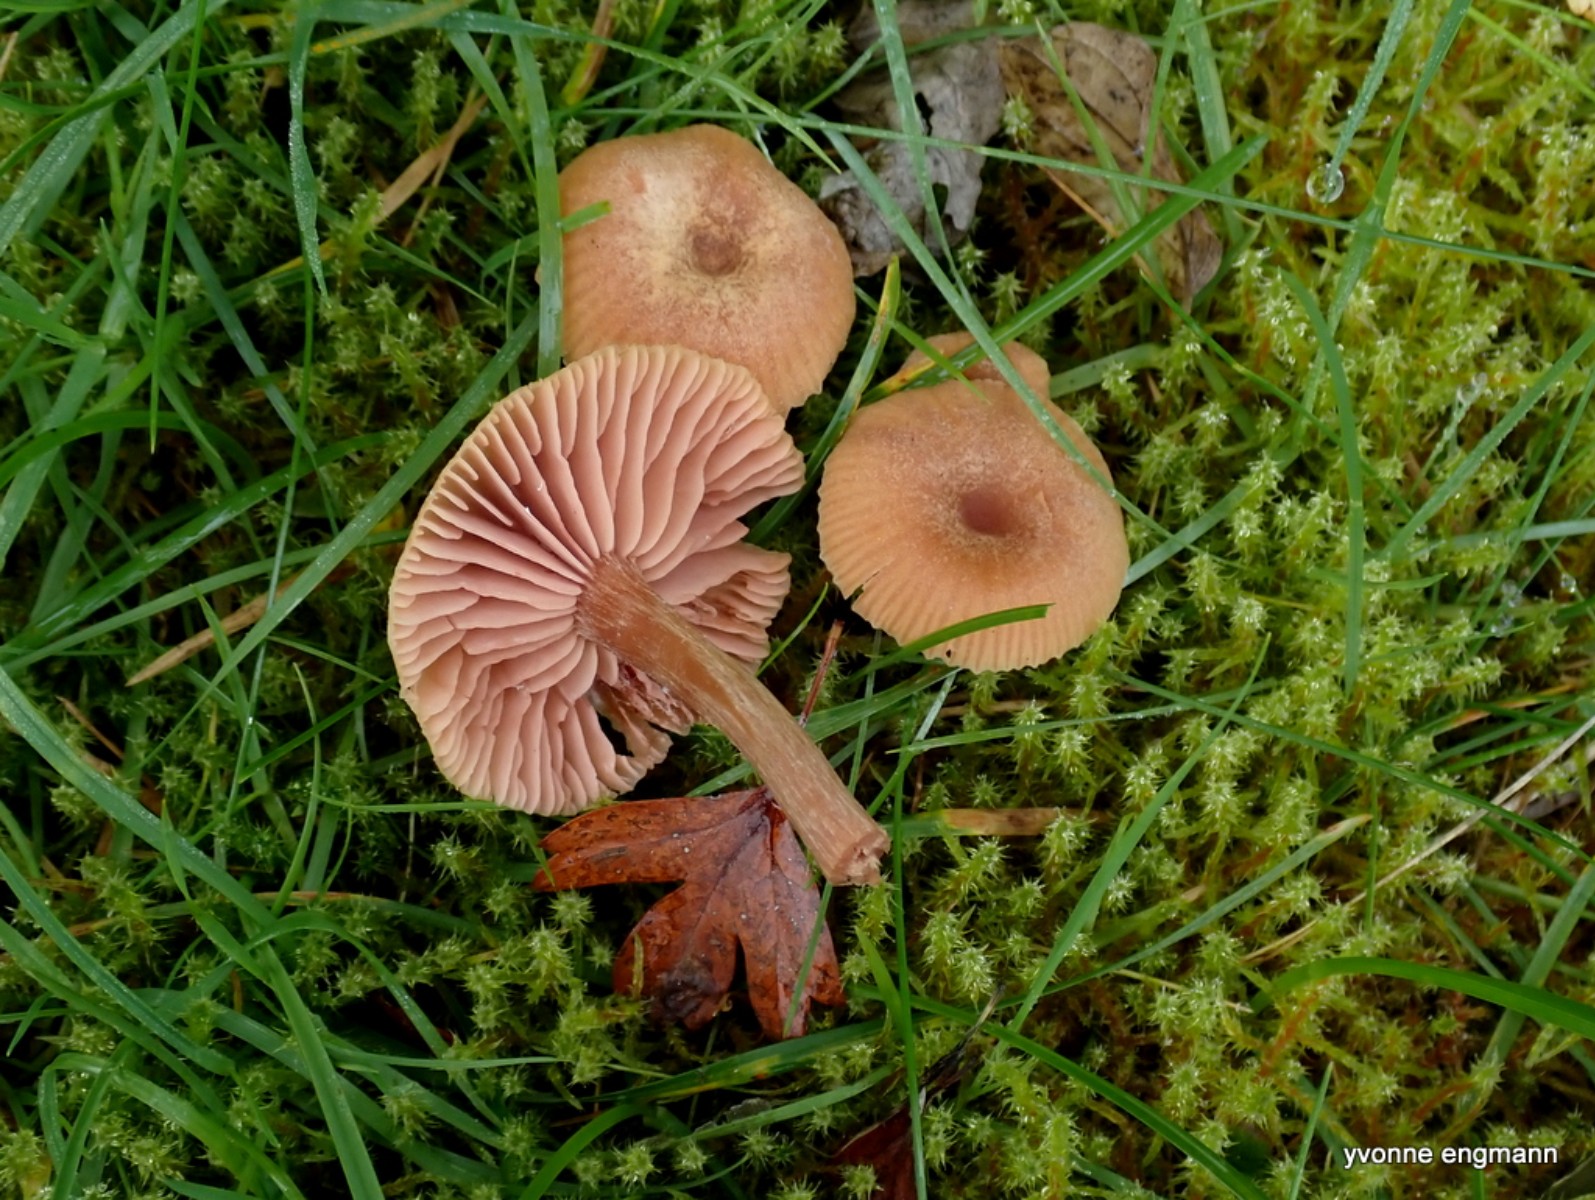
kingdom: Fungi
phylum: Basidiomycota
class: Agaricomycetes
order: Agaricales
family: Hydnangiaceae
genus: Laccaria
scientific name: Laccaria laccata
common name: rød ametysthat
